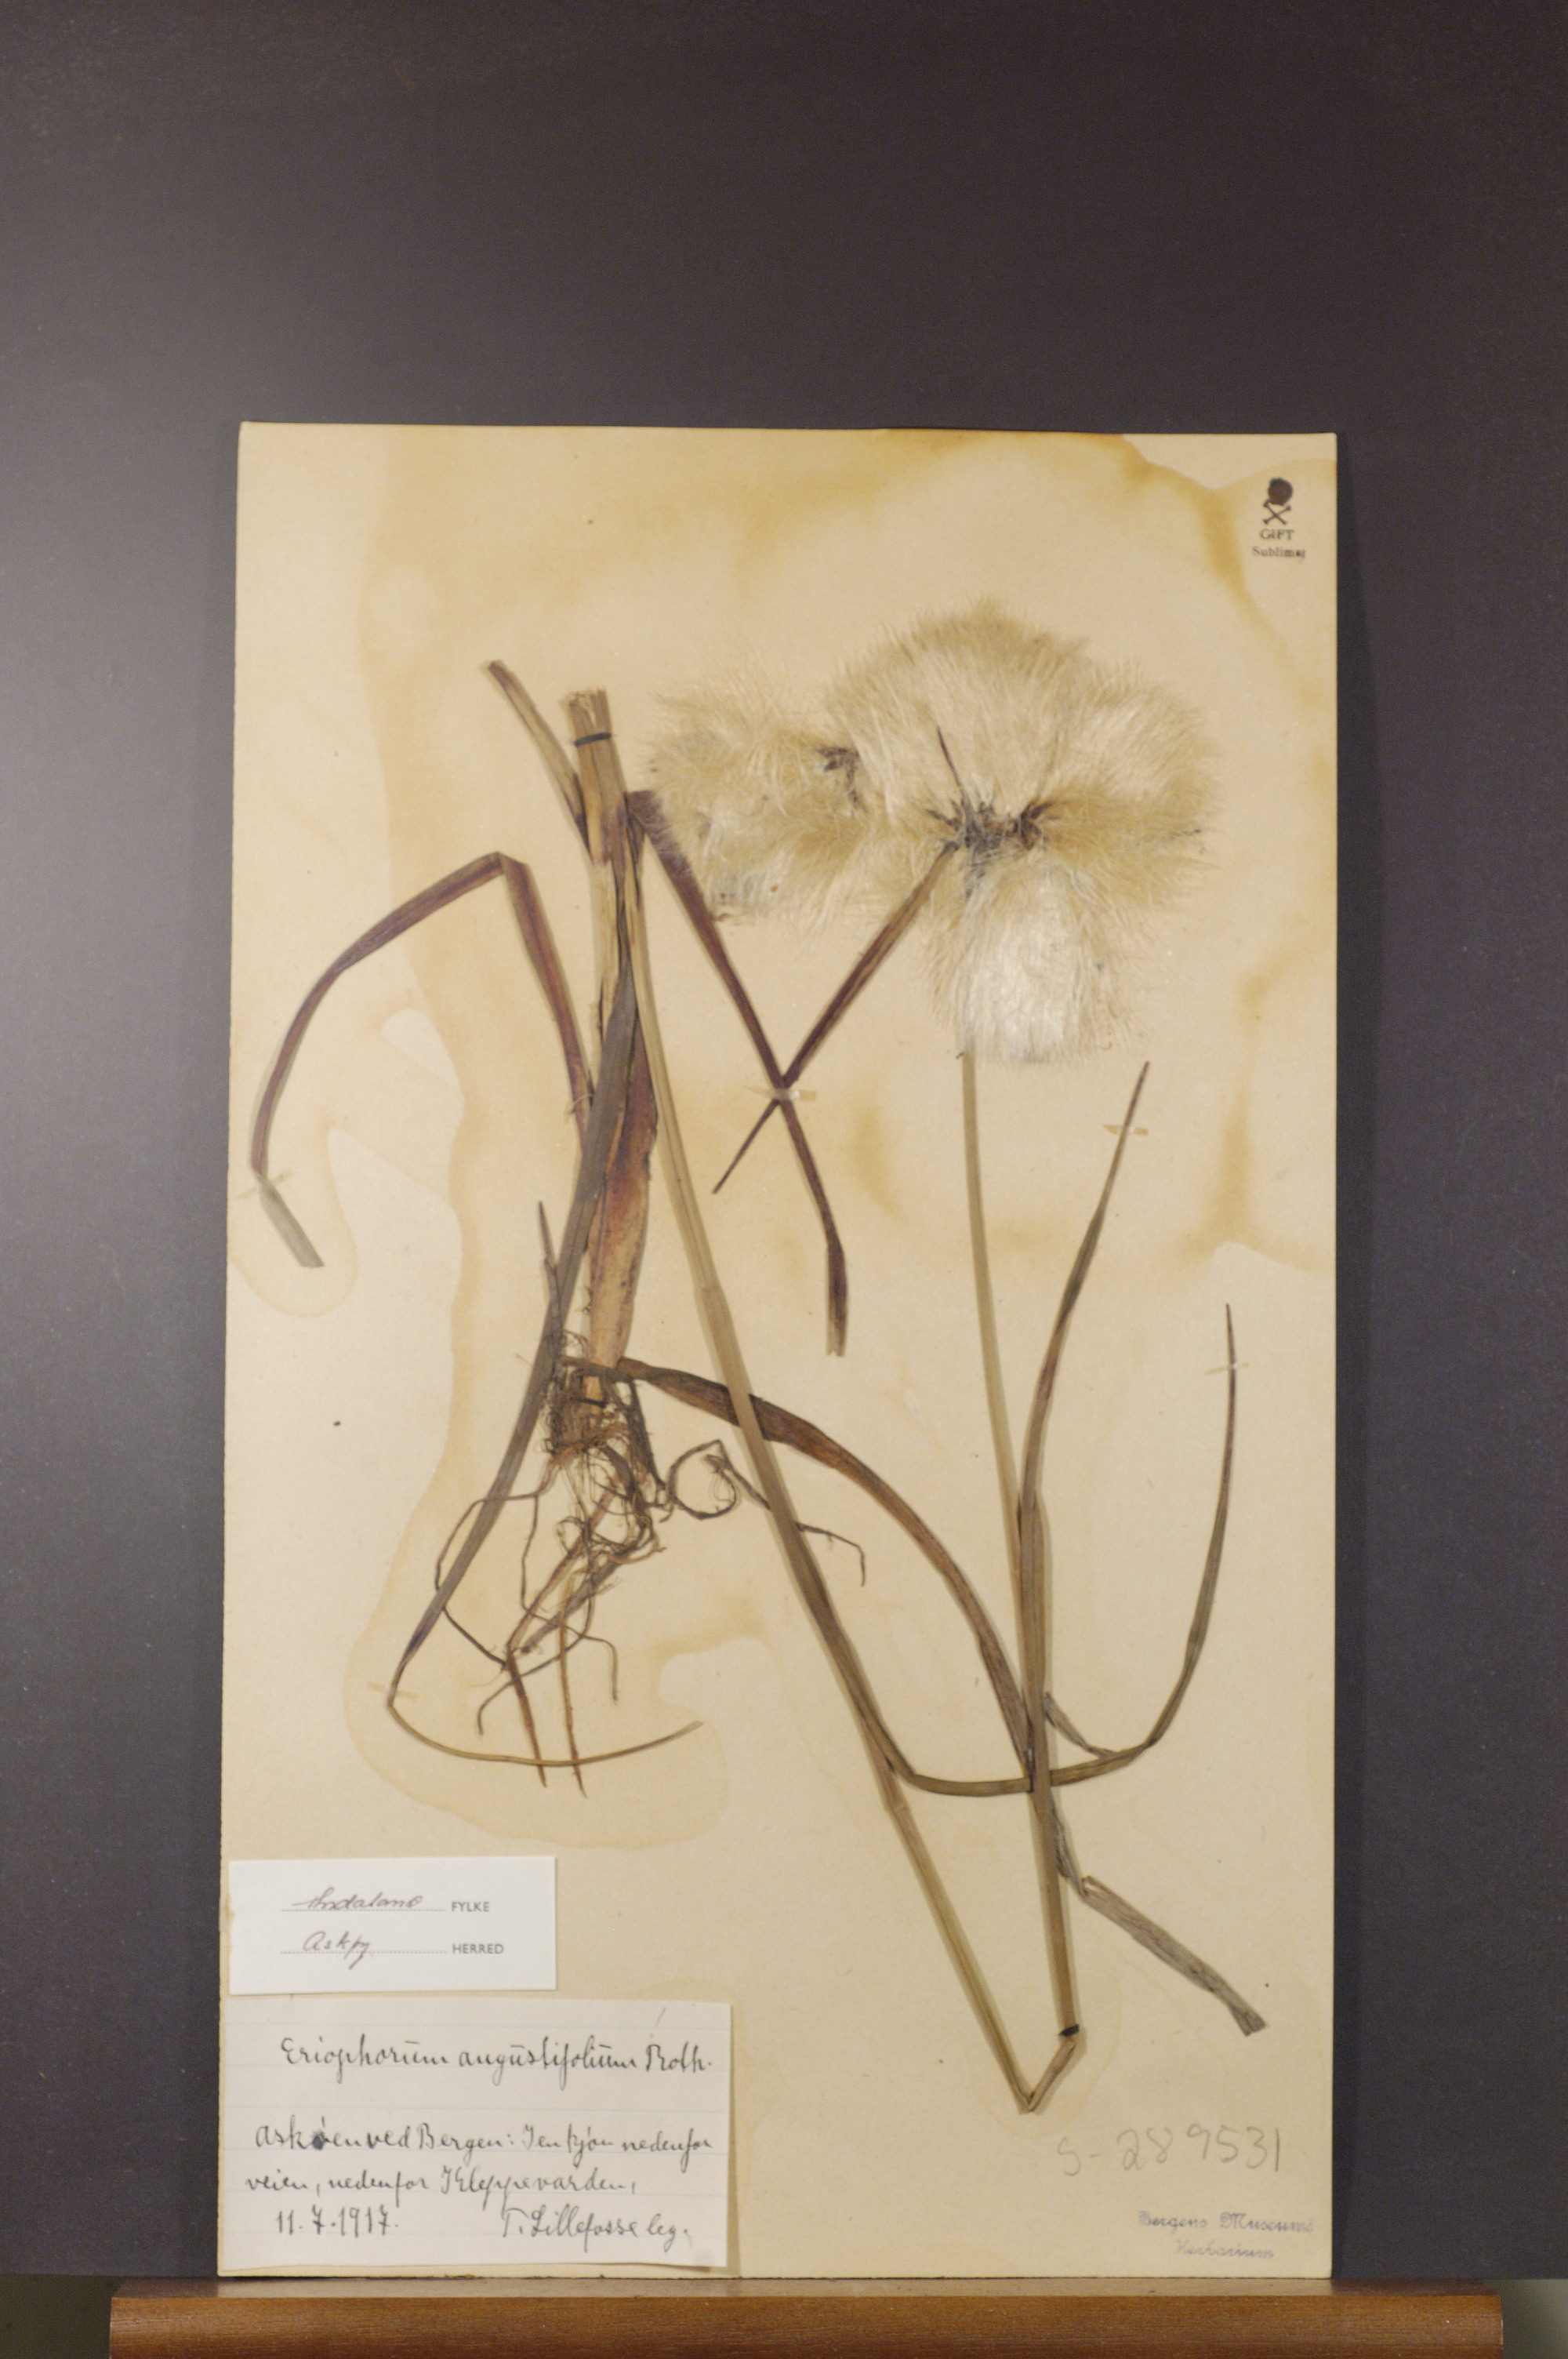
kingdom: Plantae
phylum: Tracheophyta
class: Liliopsida
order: Poales
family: Cyperaceae
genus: Eriophorum
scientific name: Eriophorum angustifolium
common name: Common cottongrass
